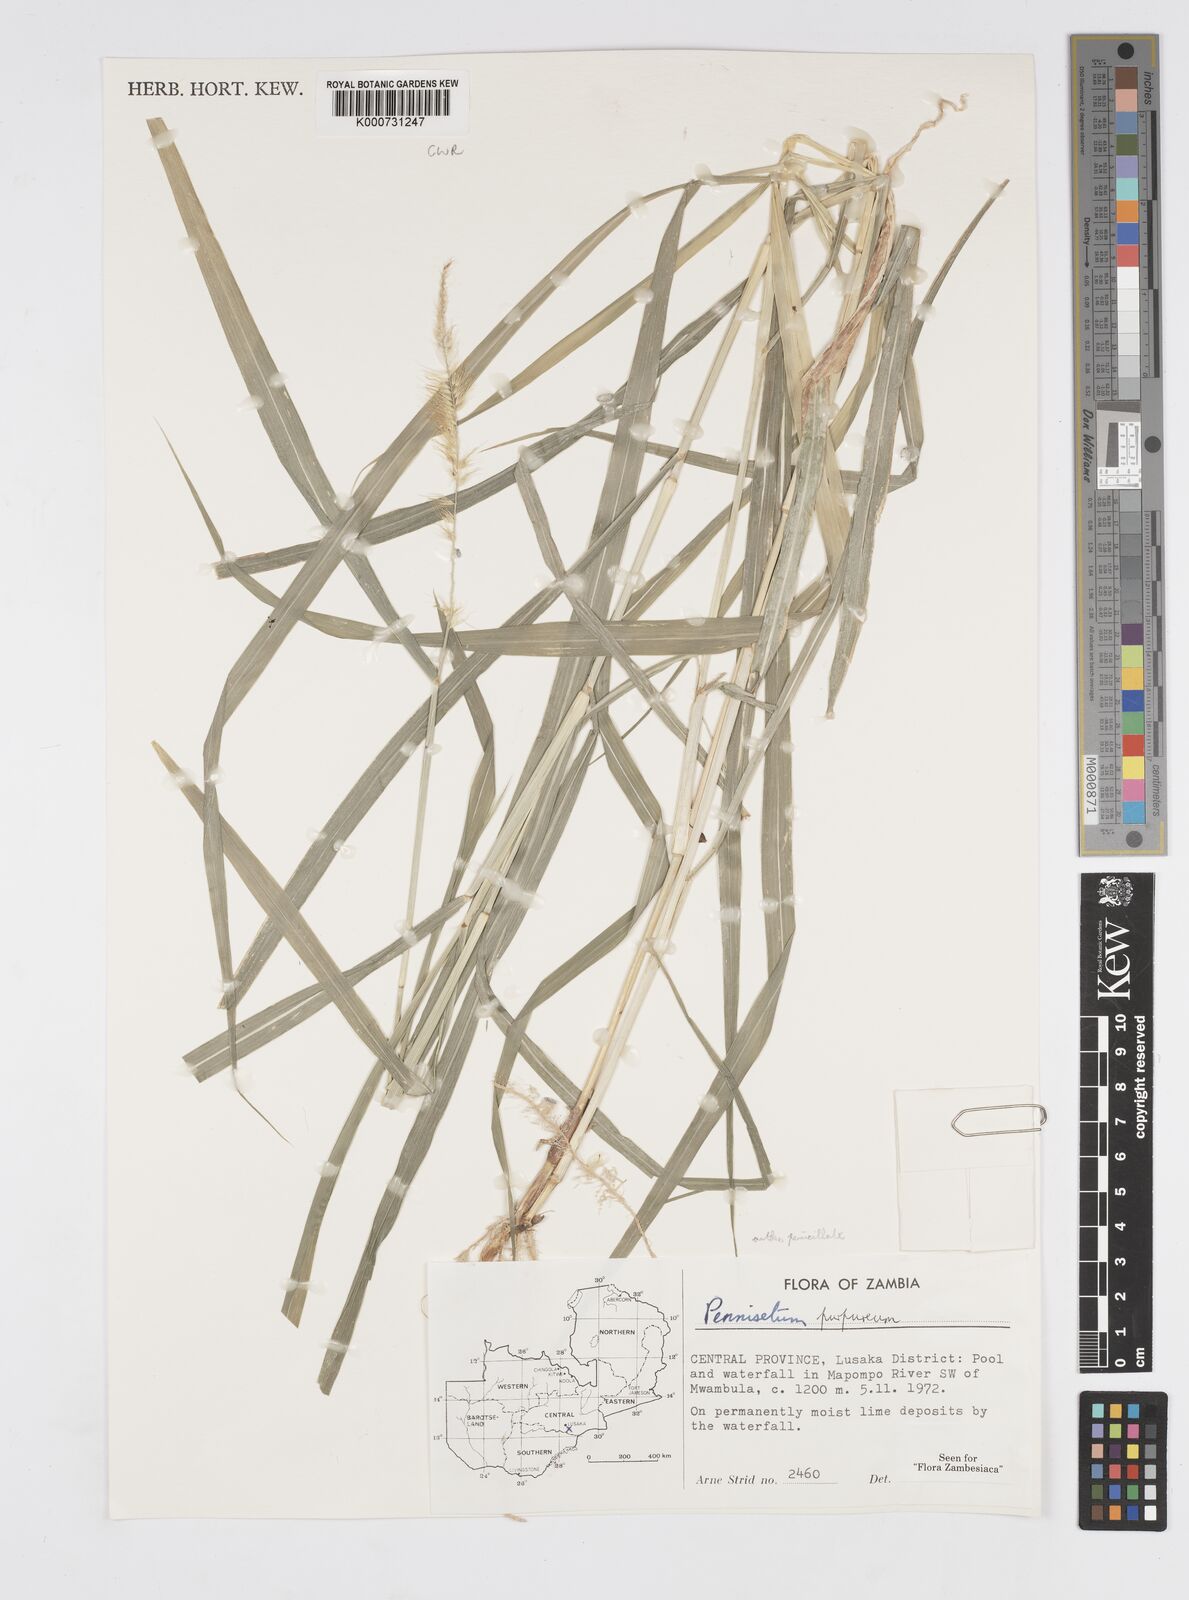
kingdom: Plantae
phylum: Tracheophyta
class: Liliopsida
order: Poales
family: Poaceae
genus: Cenchrus
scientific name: Cenchrus purpureus
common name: Elephant grass
